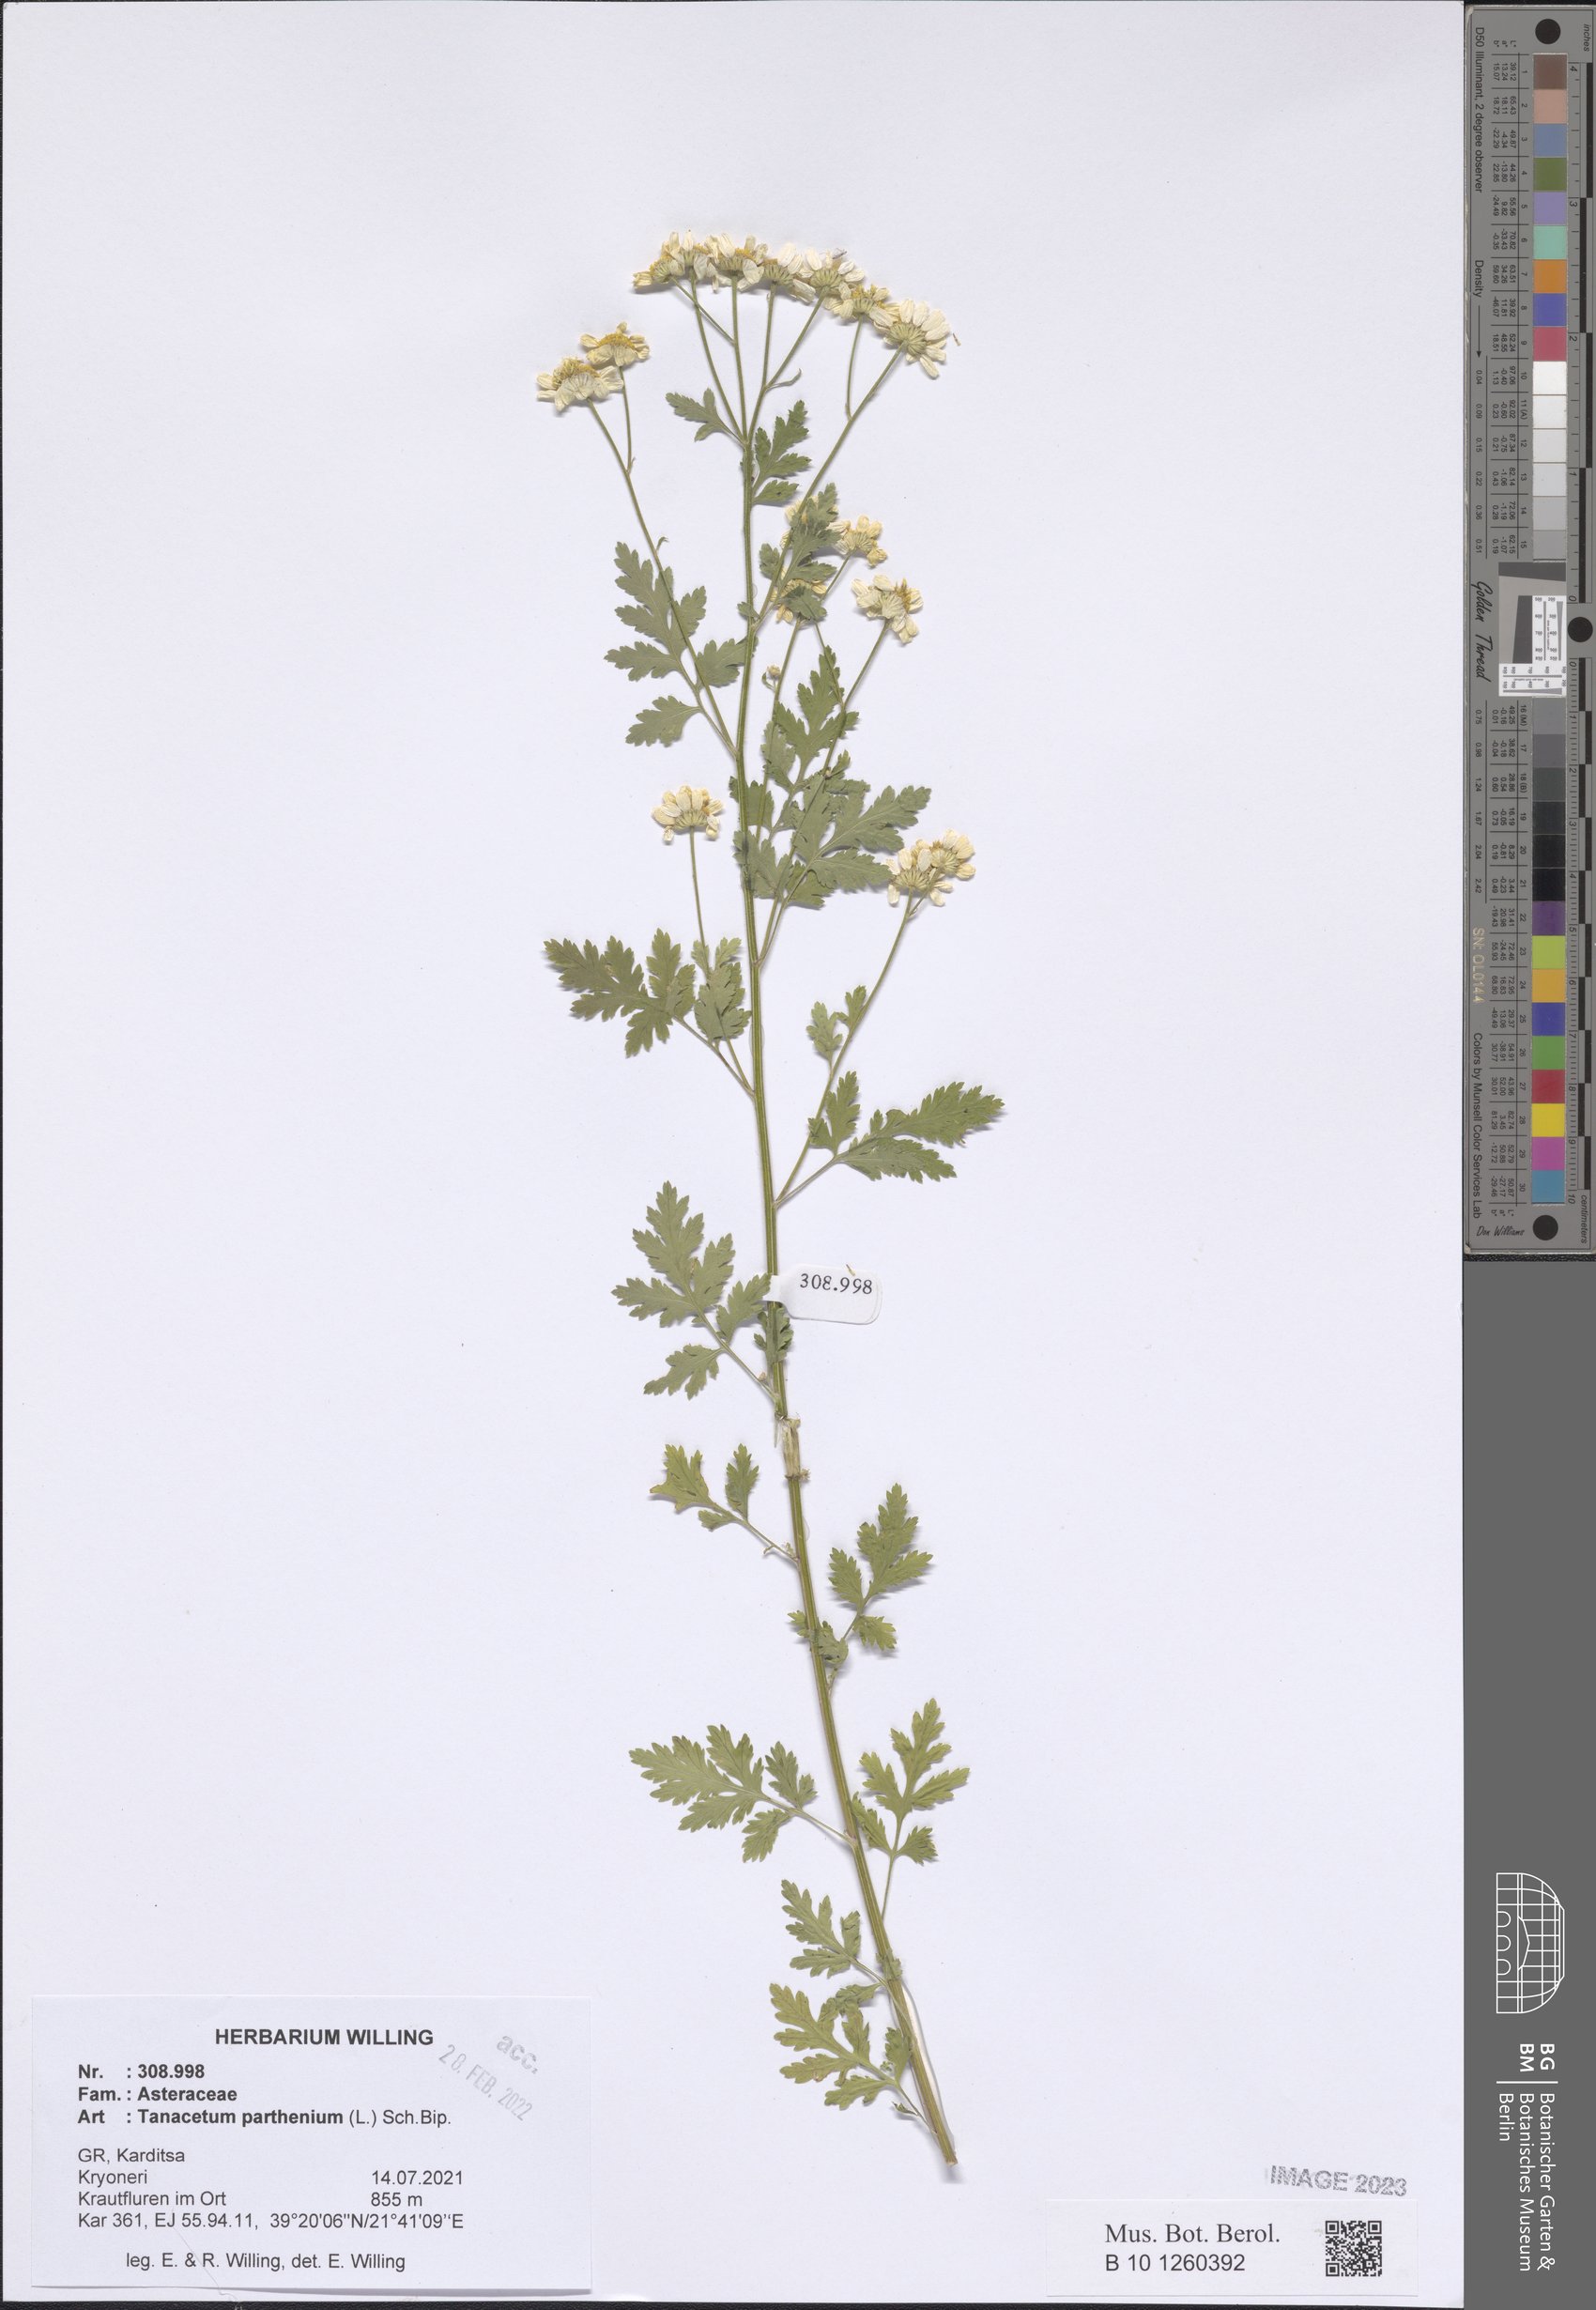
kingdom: Plantae
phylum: Tracheophyta
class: Magnoliopsida
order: Asterales
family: Asteraceae
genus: Tanacetum
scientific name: Tanacetum parthenium
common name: Feverfew
